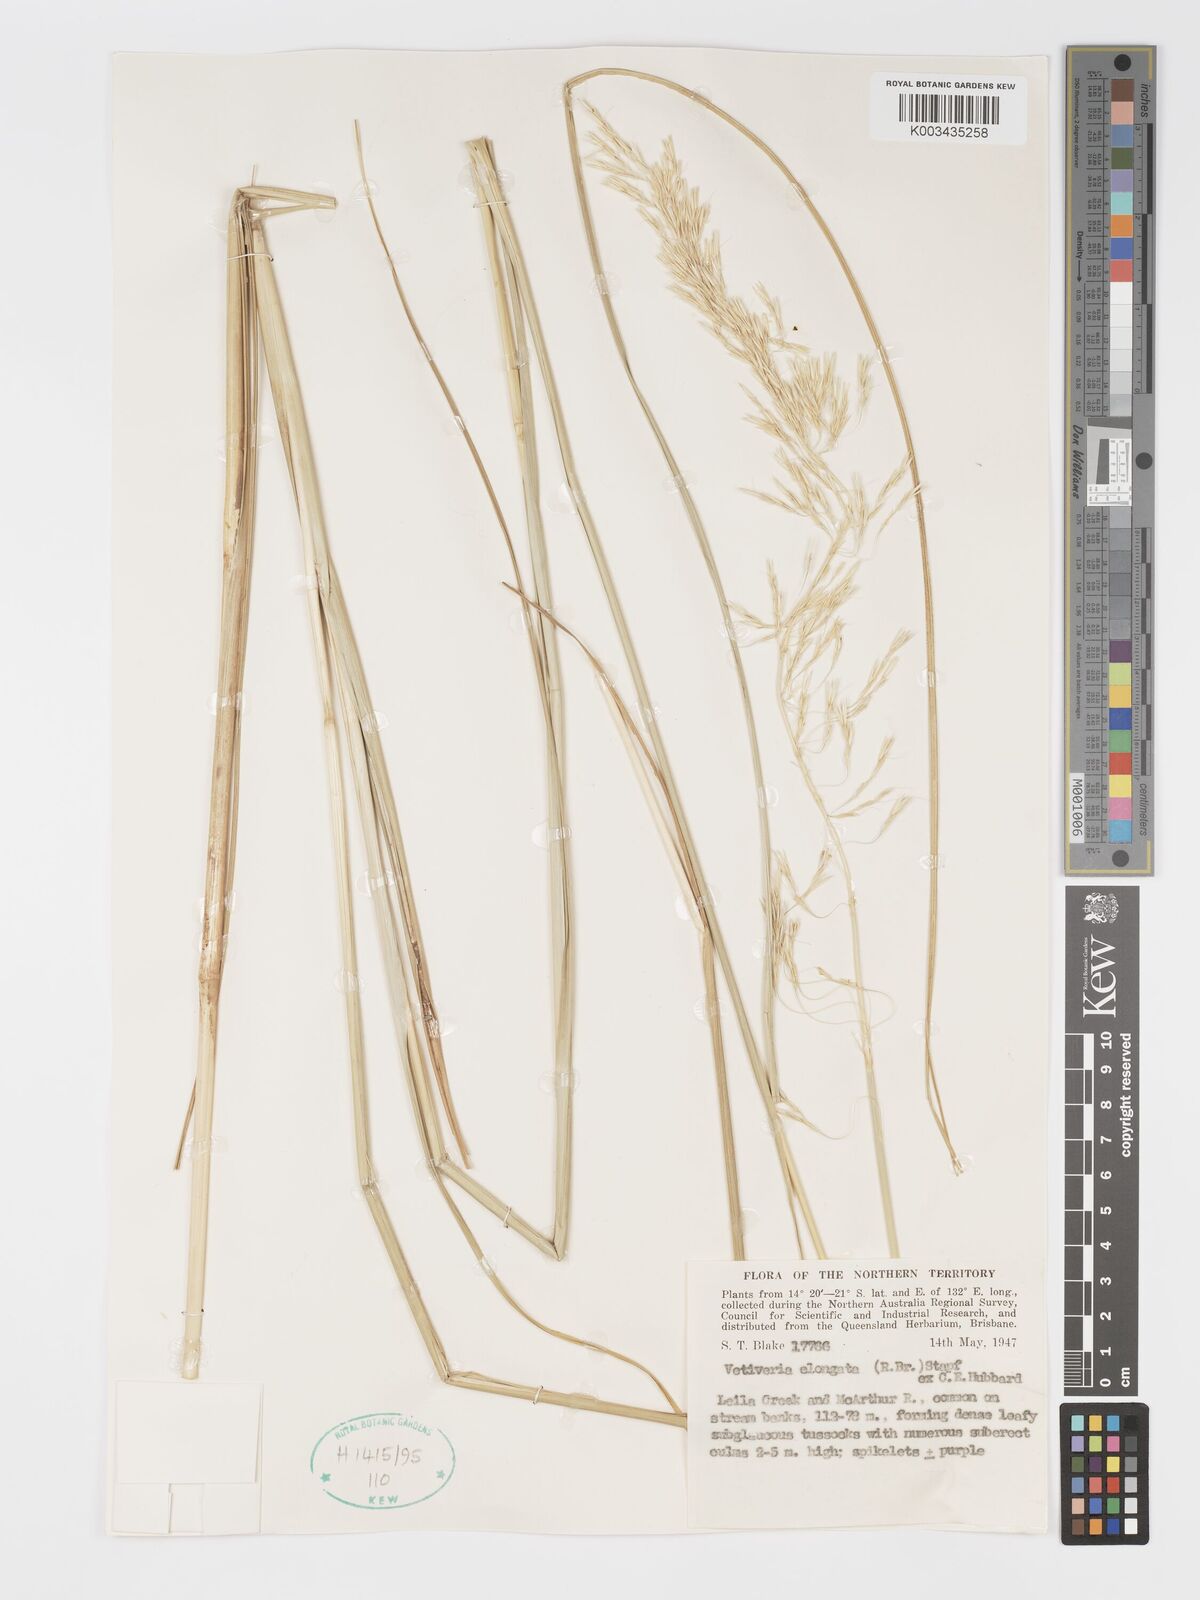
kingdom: Plantae
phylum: Tracheophyta
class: Liliopsida
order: Poales
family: Poaceae
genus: Chrysopogon
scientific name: Chrysopogon elongatus
